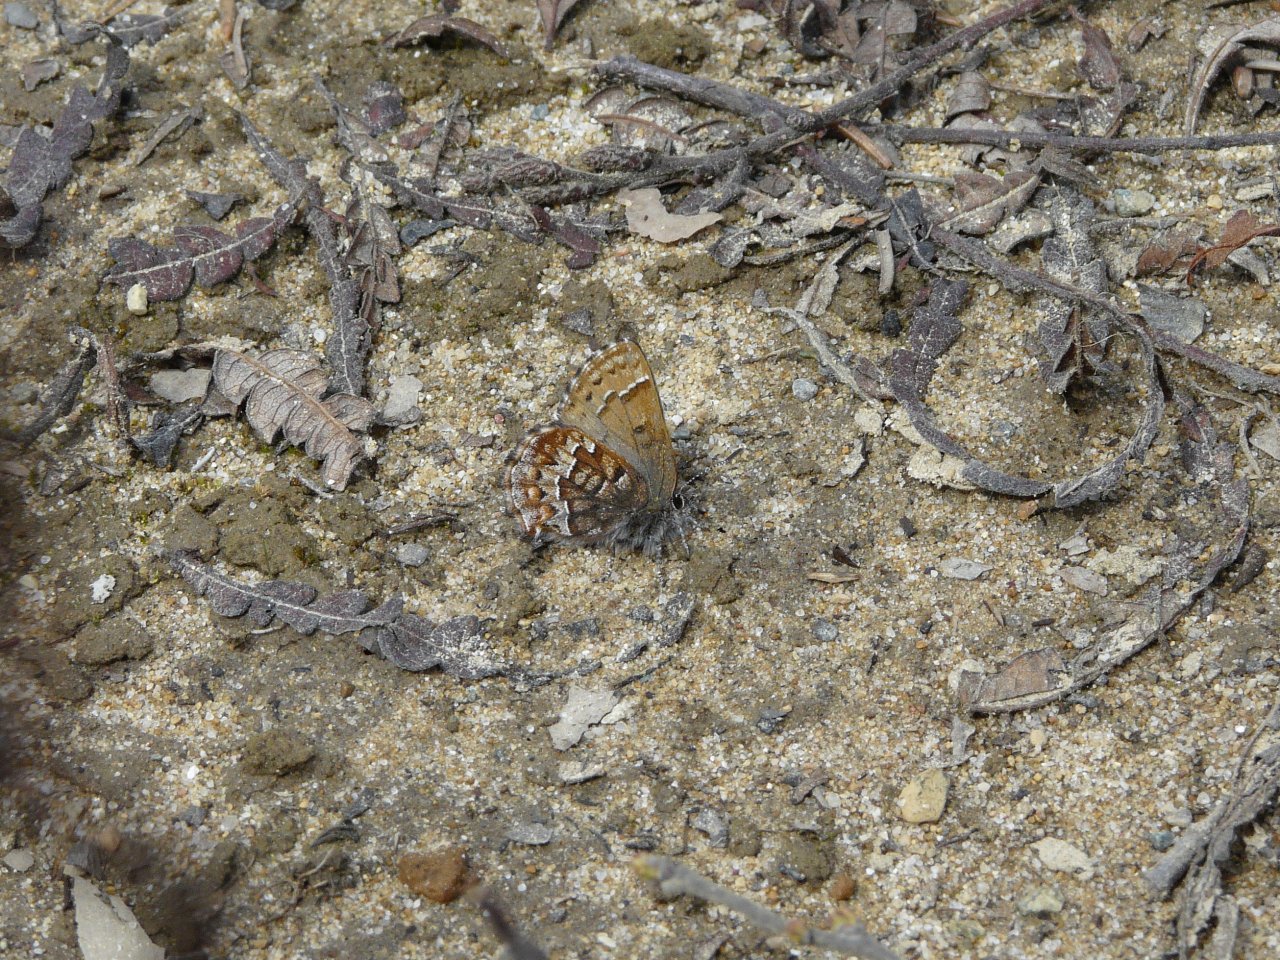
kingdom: Animalia
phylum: Arthropoda
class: Insecta
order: Lepidoptera
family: Lycaenidae
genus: Incisalia
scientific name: Incisalia niphon
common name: Eastern Pine Elfin
